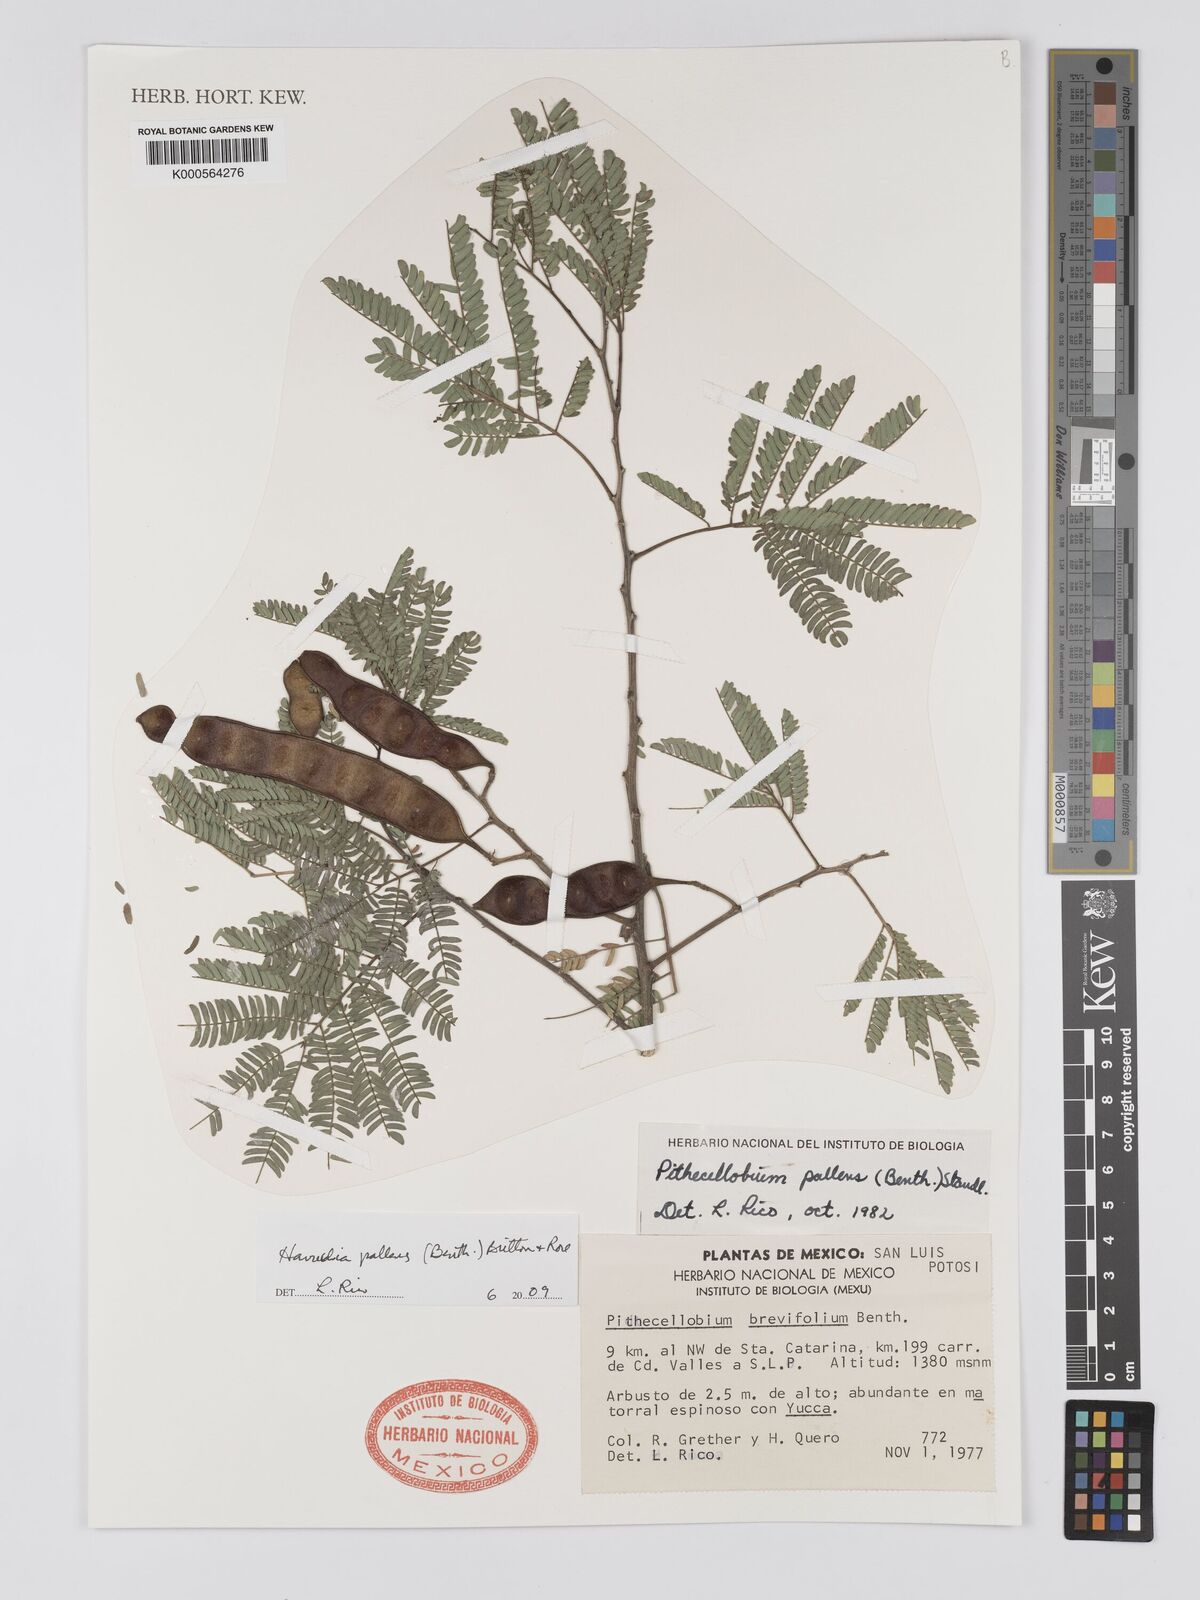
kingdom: Plantae
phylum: Tracheophyta
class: Magnoliopsida
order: Fabales
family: Fabaceae
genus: Havardia
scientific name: Havardia pallens
